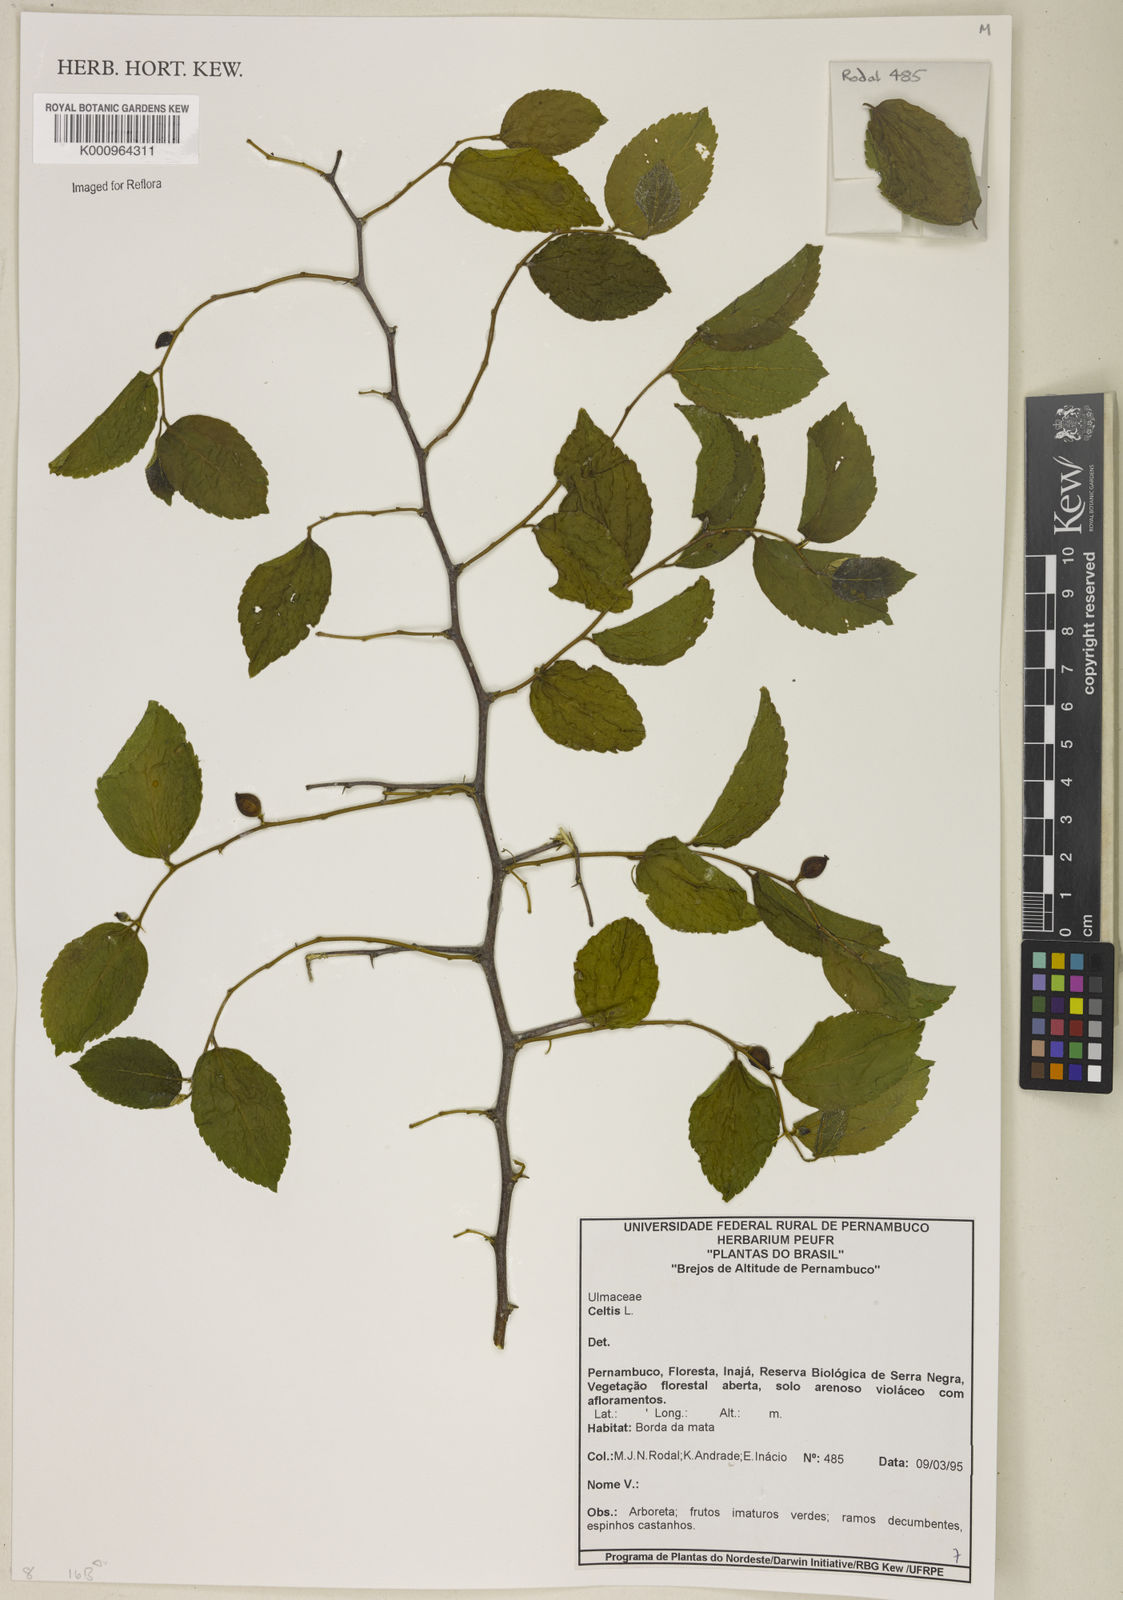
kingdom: Plantae
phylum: Tracheophyta
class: Magnoliopsida
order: Rosales
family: Cannabaceae
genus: Celtis
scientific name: Celtis
